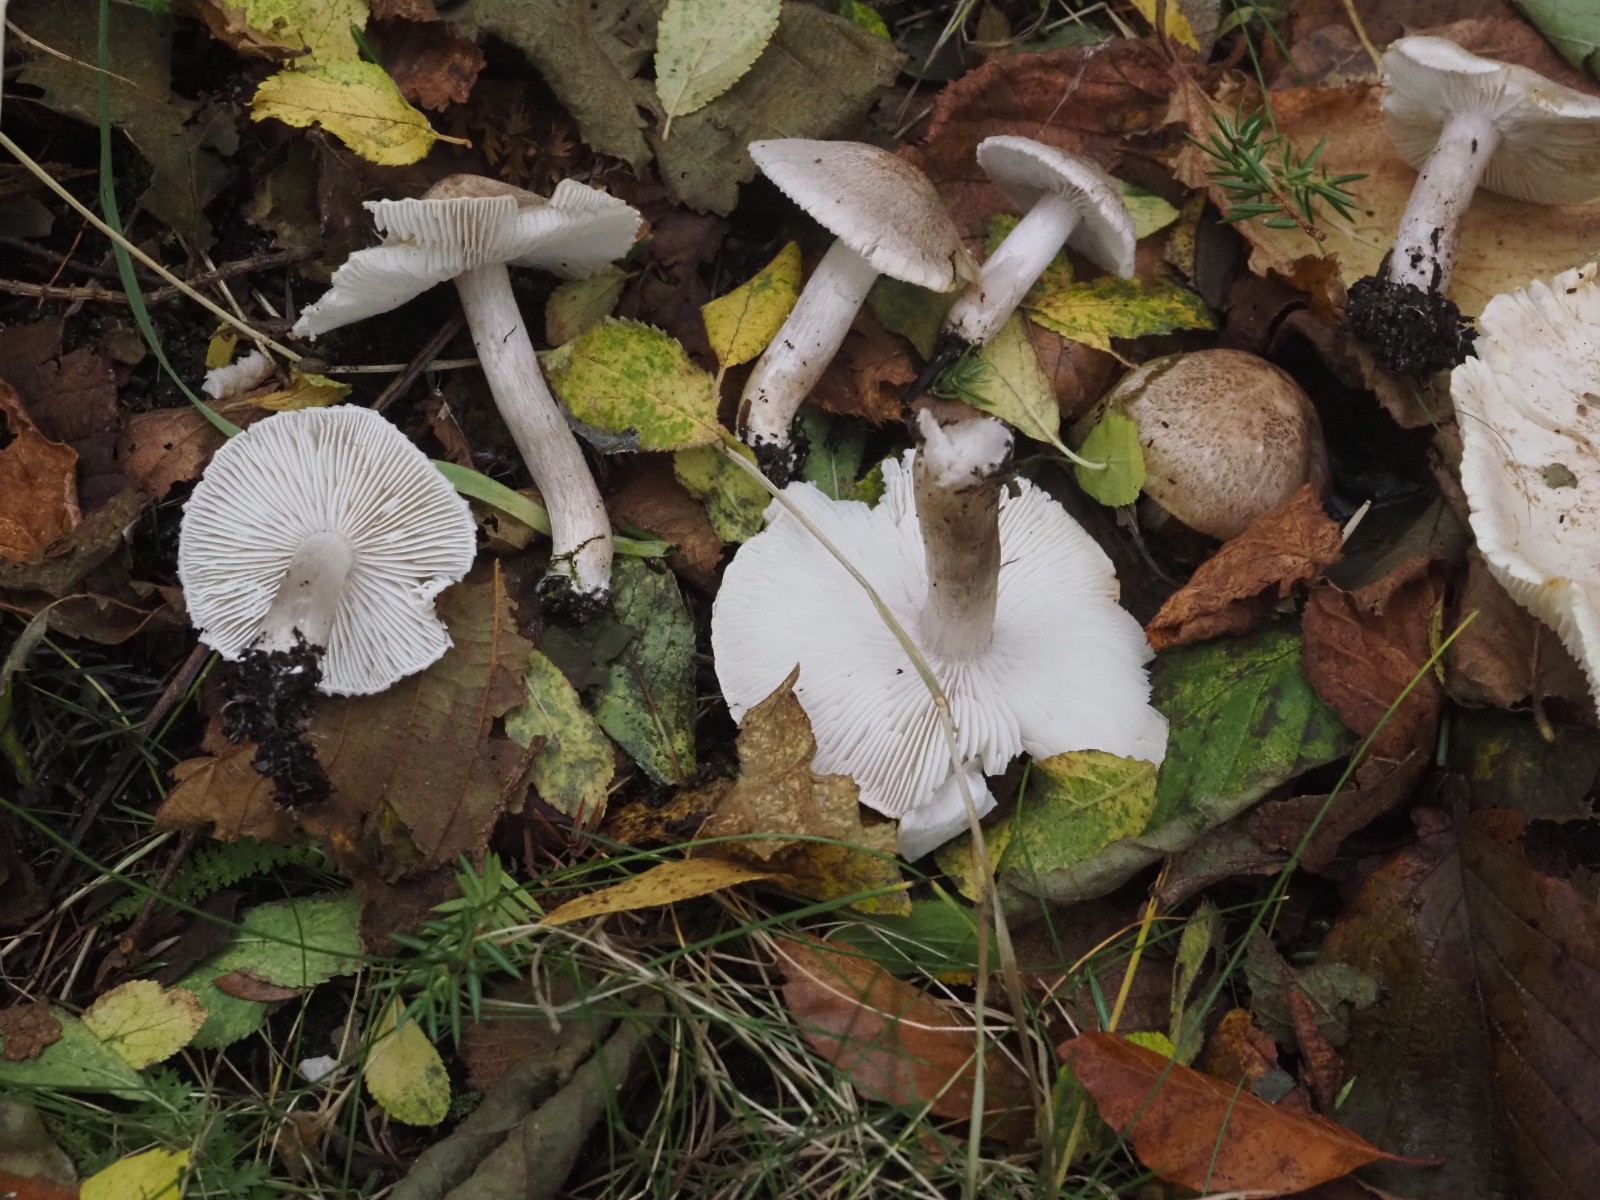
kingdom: Fungi
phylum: Basidiomycota
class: Agaricomycetes
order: Agaricales
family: Tricholomataceae
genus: Tricholoma
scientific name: Tricholoma argyraceum
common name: slør-ridderhat
